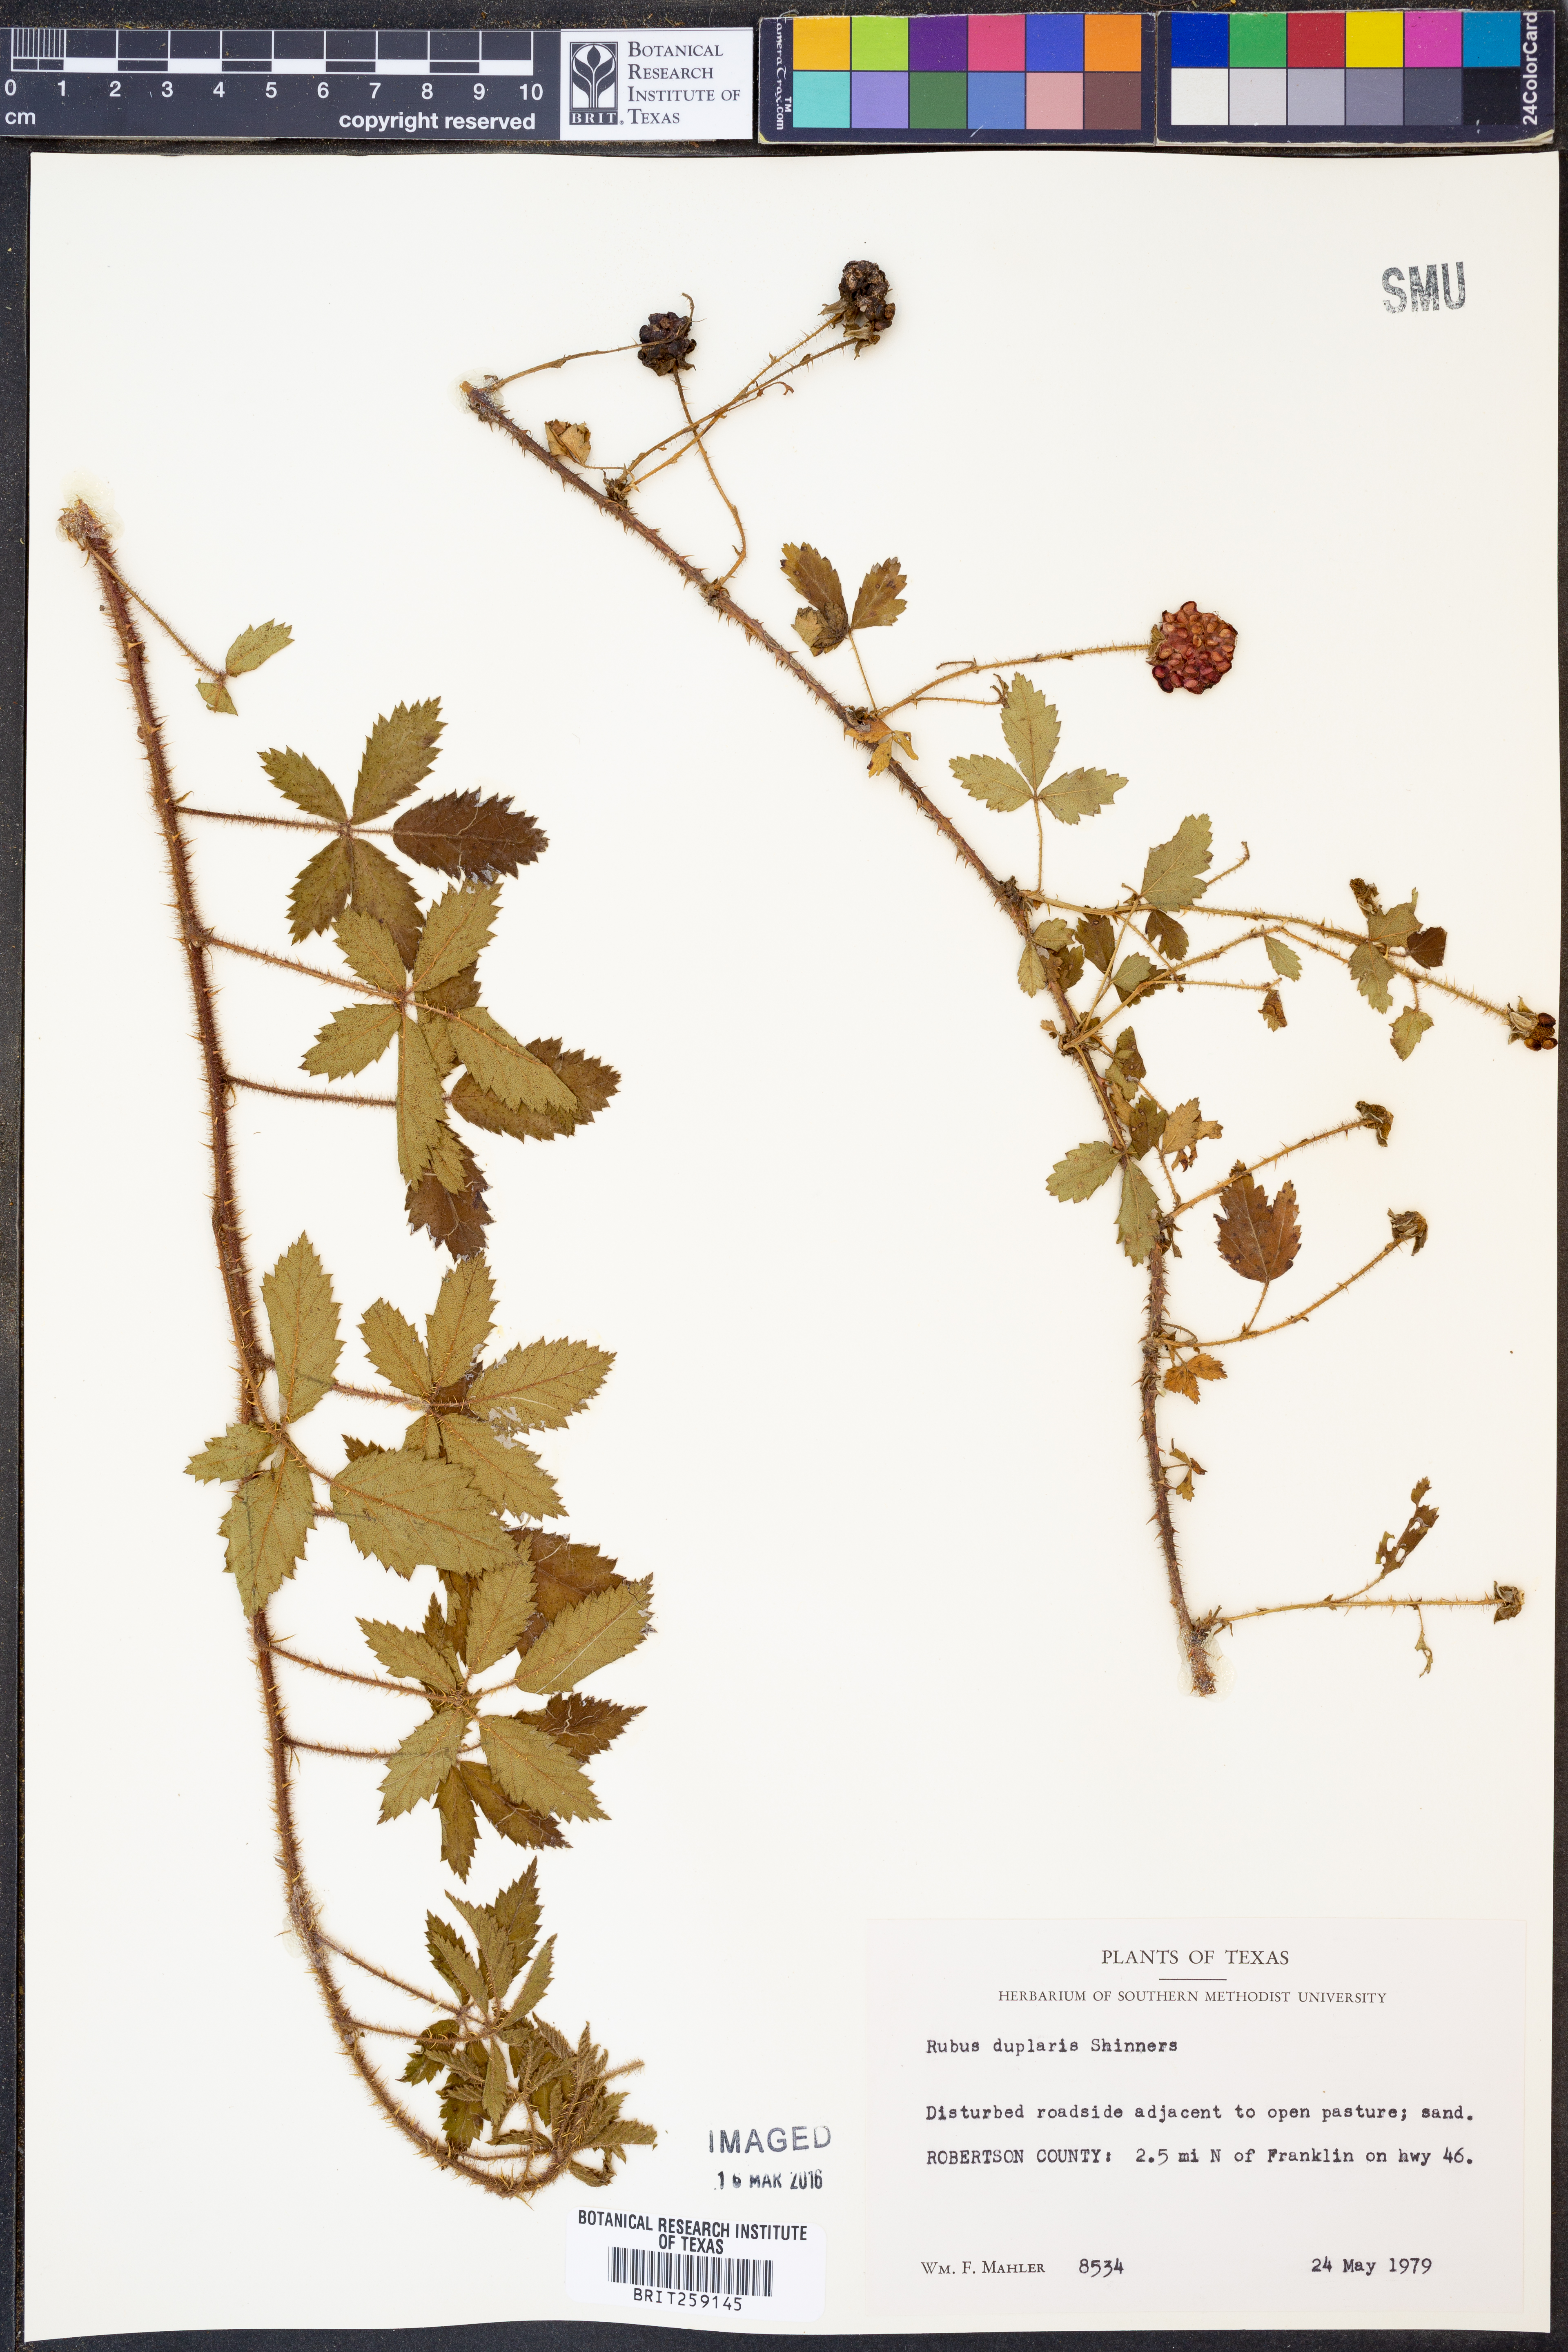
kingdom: Plantae
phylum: Tracheophyta
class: Magnoliopsida
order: Rosales
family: Rosaceae
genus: Rubus
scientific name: Rubus riograndis
